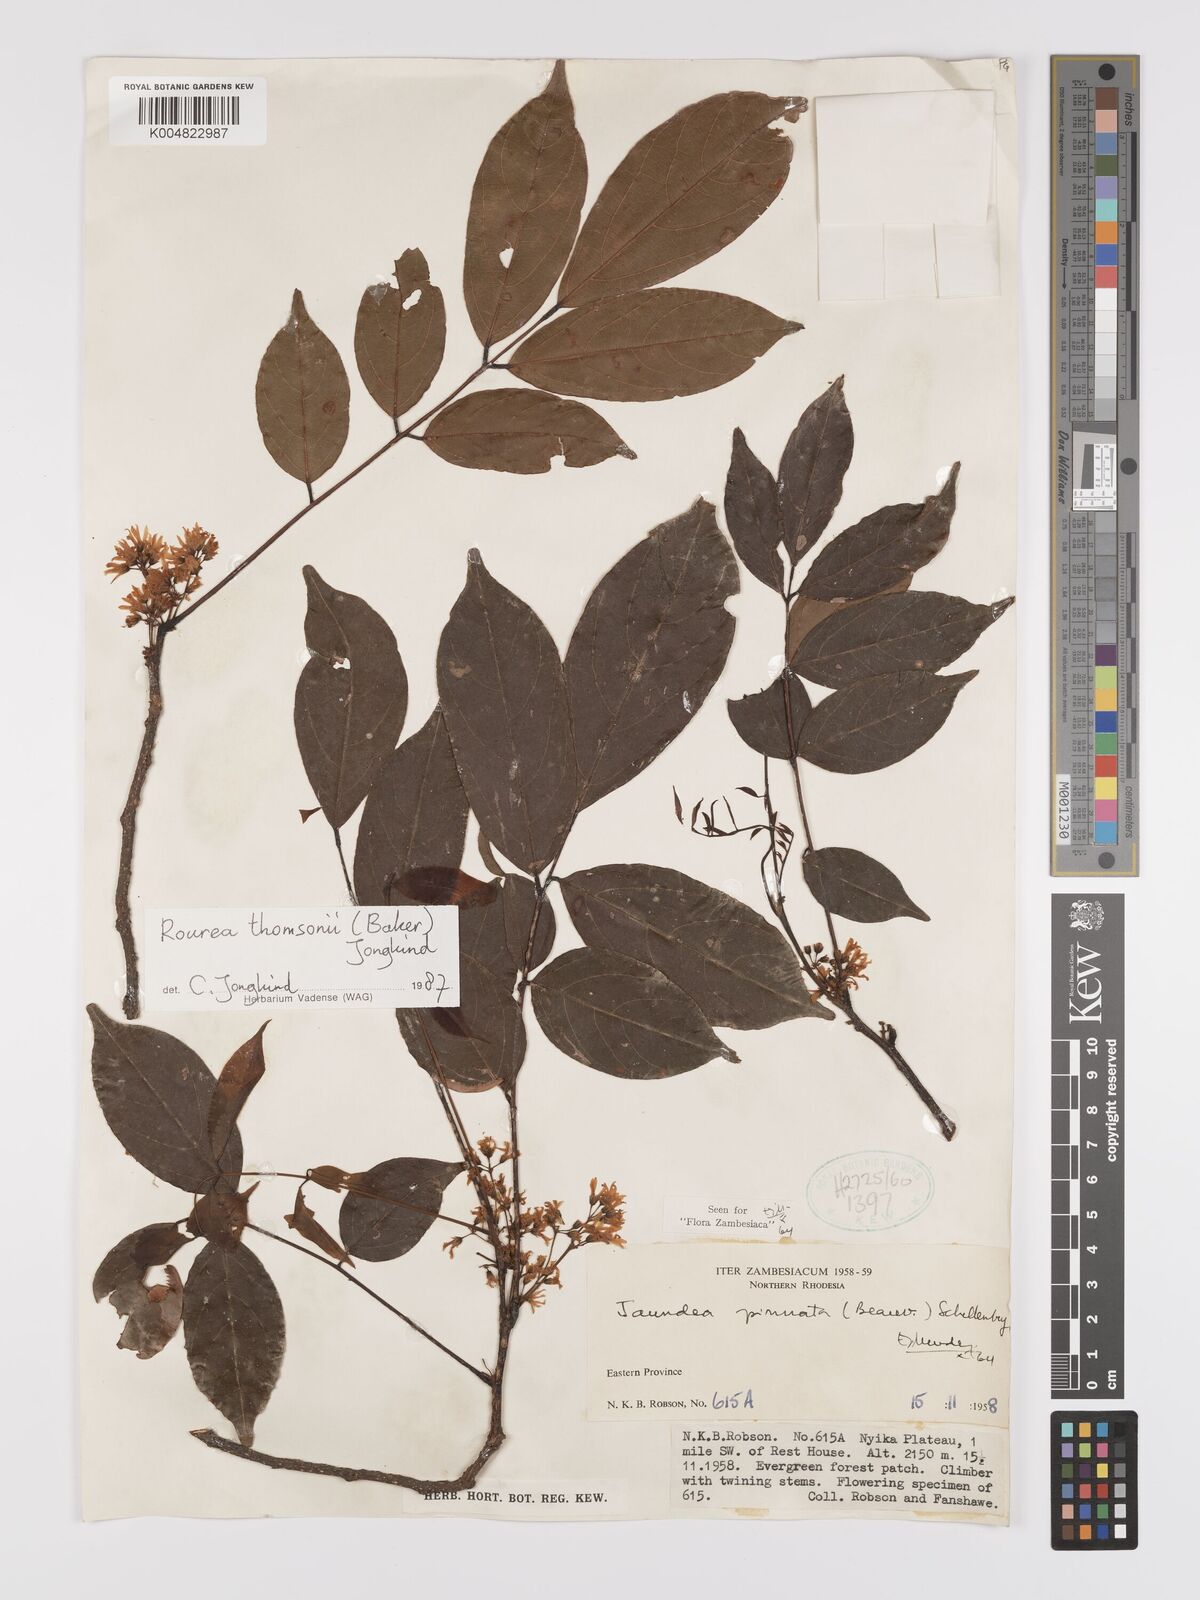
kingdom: Plantae
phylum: Tracheophyta
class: Magnoliopsida
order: Oxalidales
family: Connaraceae
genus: Rourea
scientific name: Rourea pinnata
